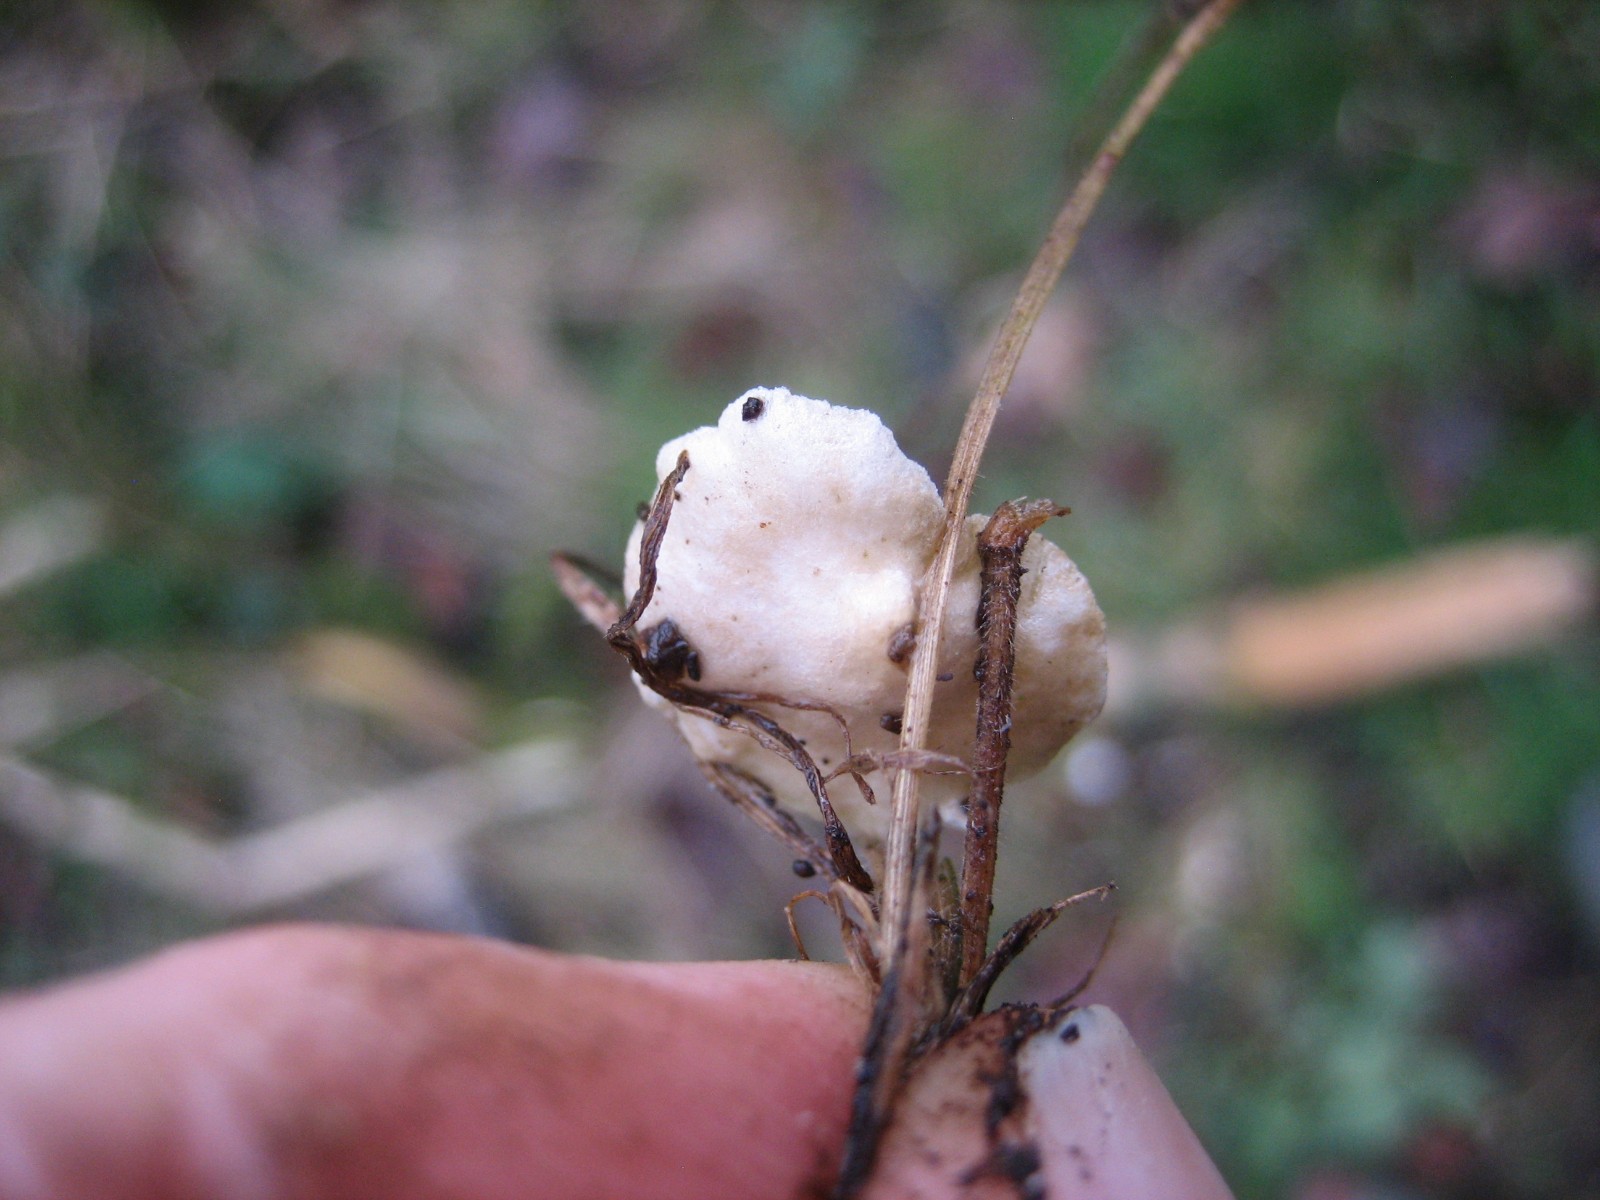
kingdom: Fungi
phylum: Basidiomycota
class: Agaricomycetes
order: Agaricales
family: Crepidotaceae
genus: Crepidotus
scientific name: Crepidotus
